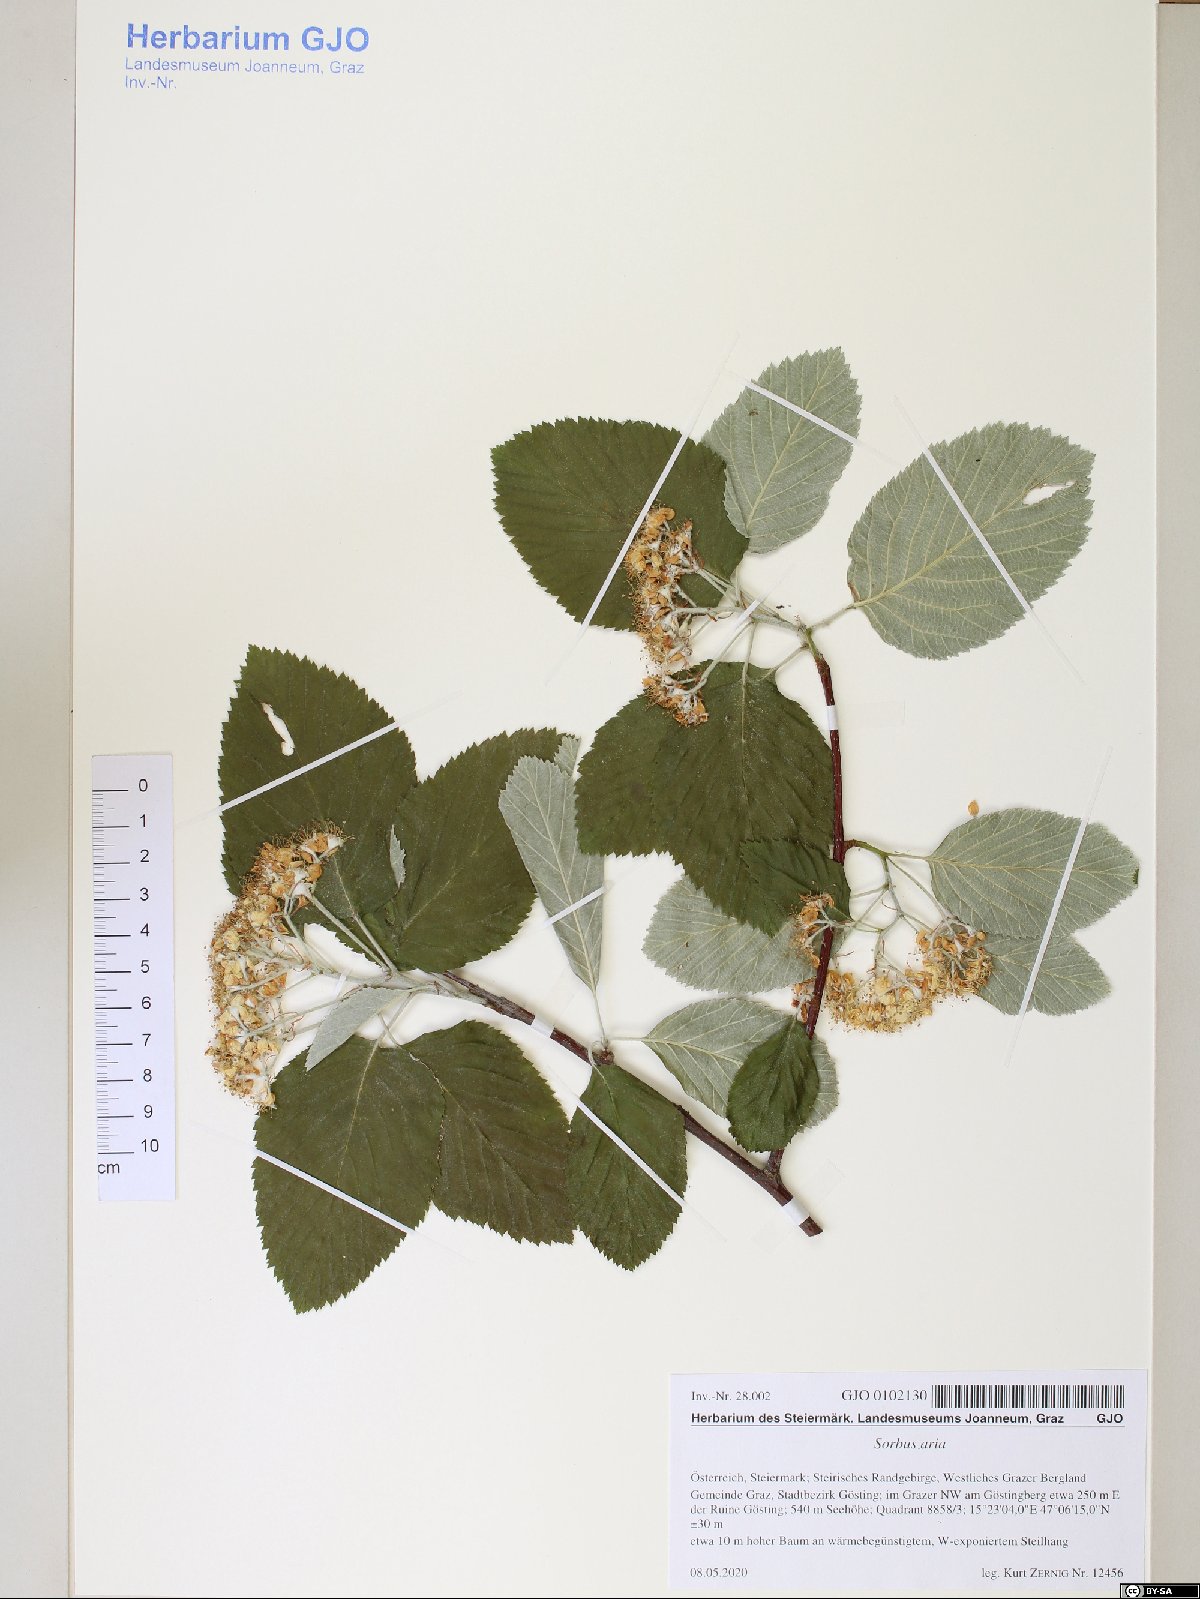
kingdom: Plantae
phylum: Tracheophyta
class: Magnoliopsida
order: Rosales
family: Rosaceae
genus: Aria
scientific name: Aria edulis
